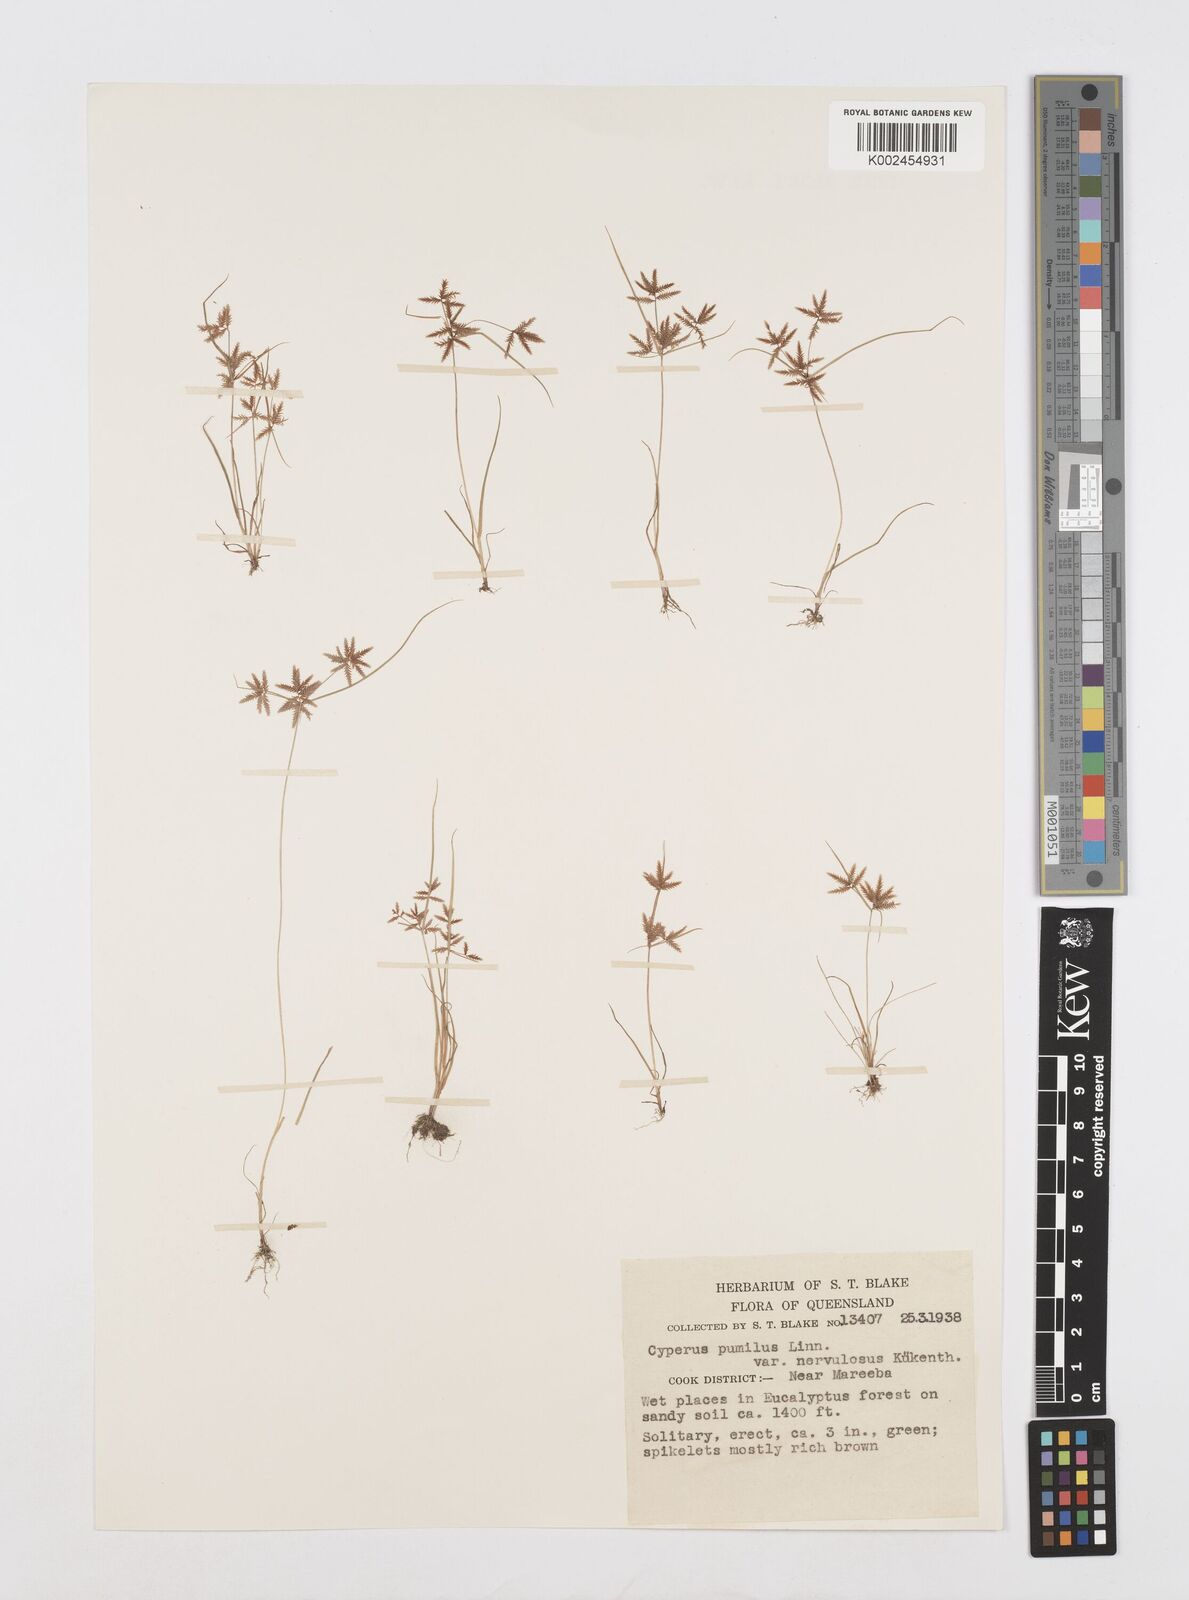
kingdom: Plantae
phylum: Tracheophyta
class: Liliopsida
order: Poales
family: Cyperaceae
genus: Cyperus
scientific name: Cyperus nervulosus
